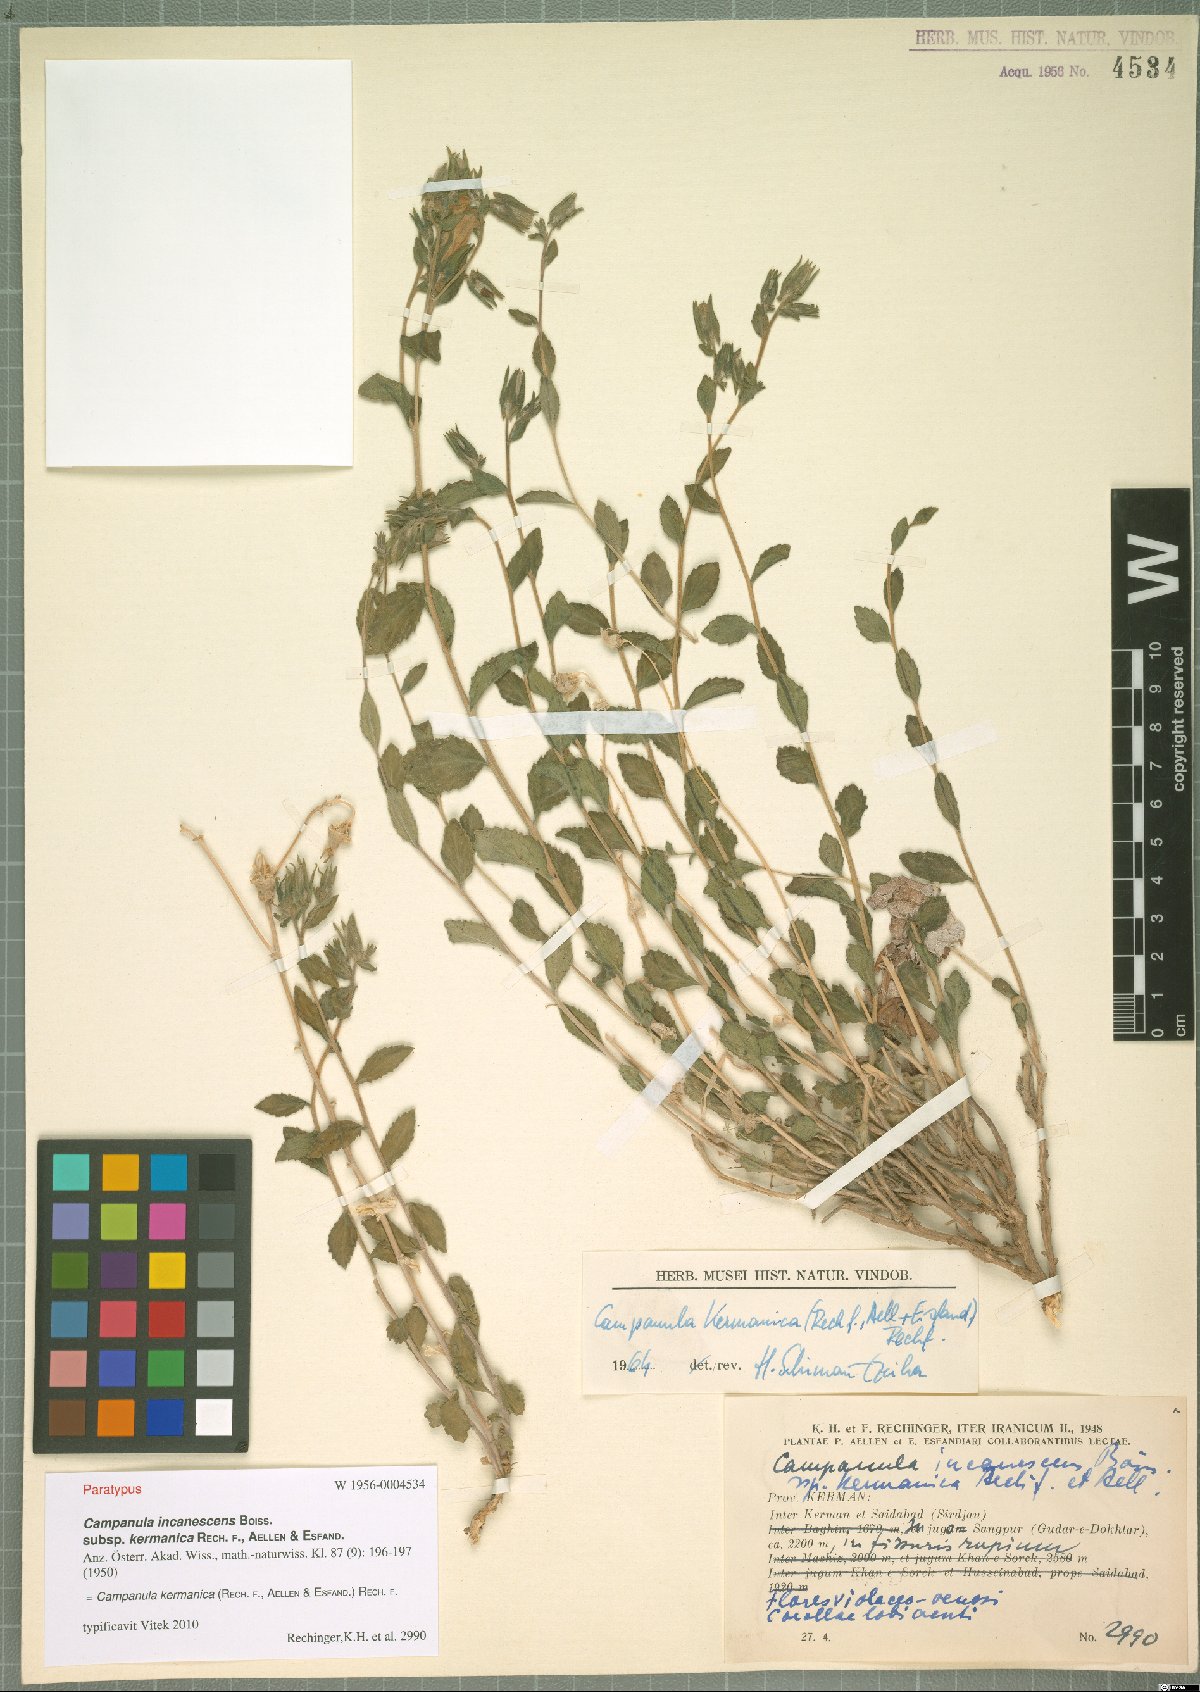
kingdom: Plantae
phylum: Tracheophyta
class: Magnoliopsida
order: Asterales
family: Campanulaceae
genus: Campanula
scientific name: Campanula kermanica
